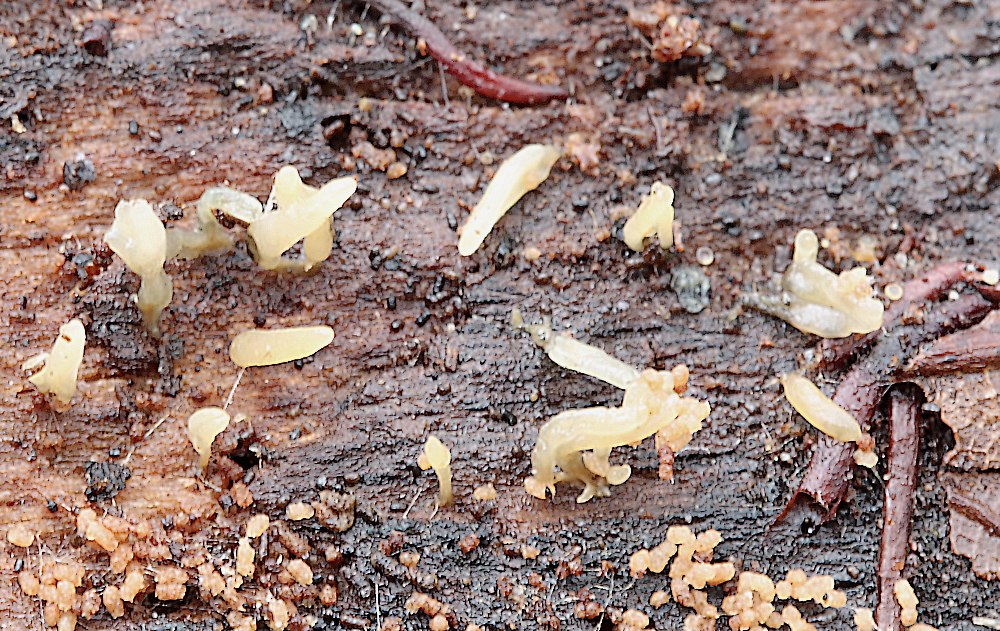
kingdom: Fungi
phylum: Basidiomycota
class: Dacrymycetes
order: Dacrymycetales
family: Dacrymycetaceae
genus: Calocera
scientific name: Calocera
